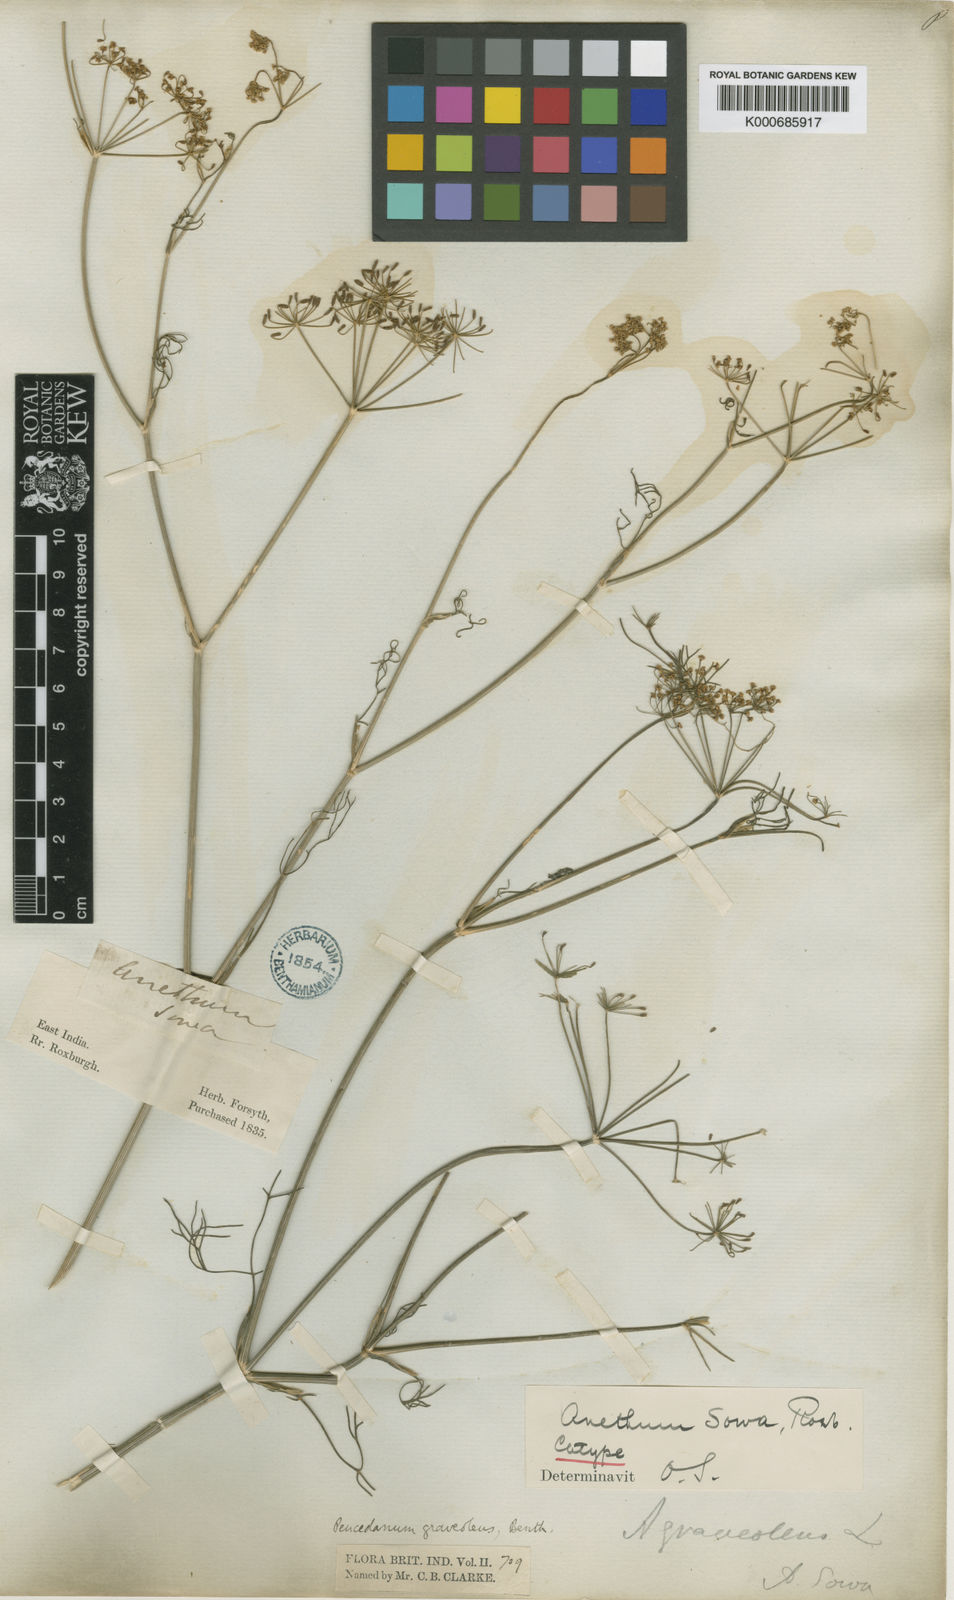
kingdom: Plantae
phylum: Tracheophyta
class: Magnoliopsida
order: Apiales
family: Apiaceae
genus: Anethum
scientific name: Anethum graveolens
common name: Dill
